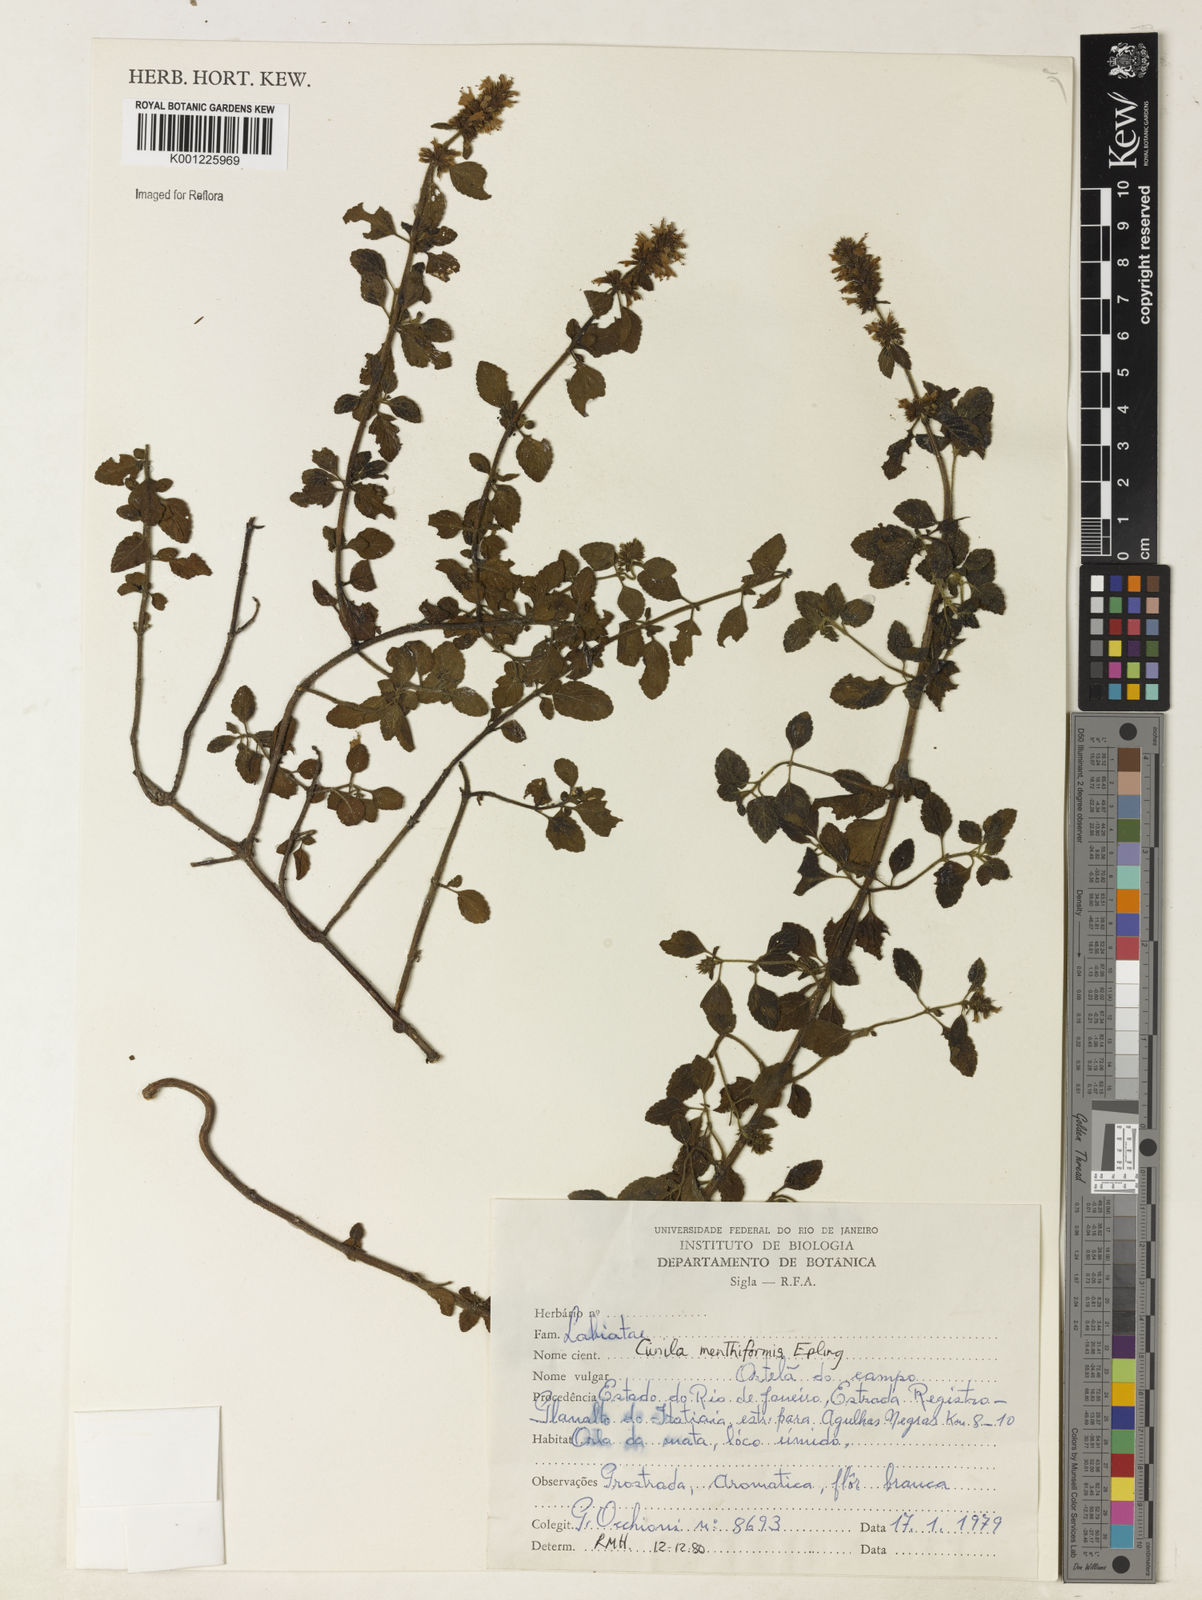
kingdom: Plantae
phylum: Tracheophyta
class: Magnoliopsida
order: Lamiales
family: Lamiaceae
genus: Cunila
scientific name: Cunila menthiformis
